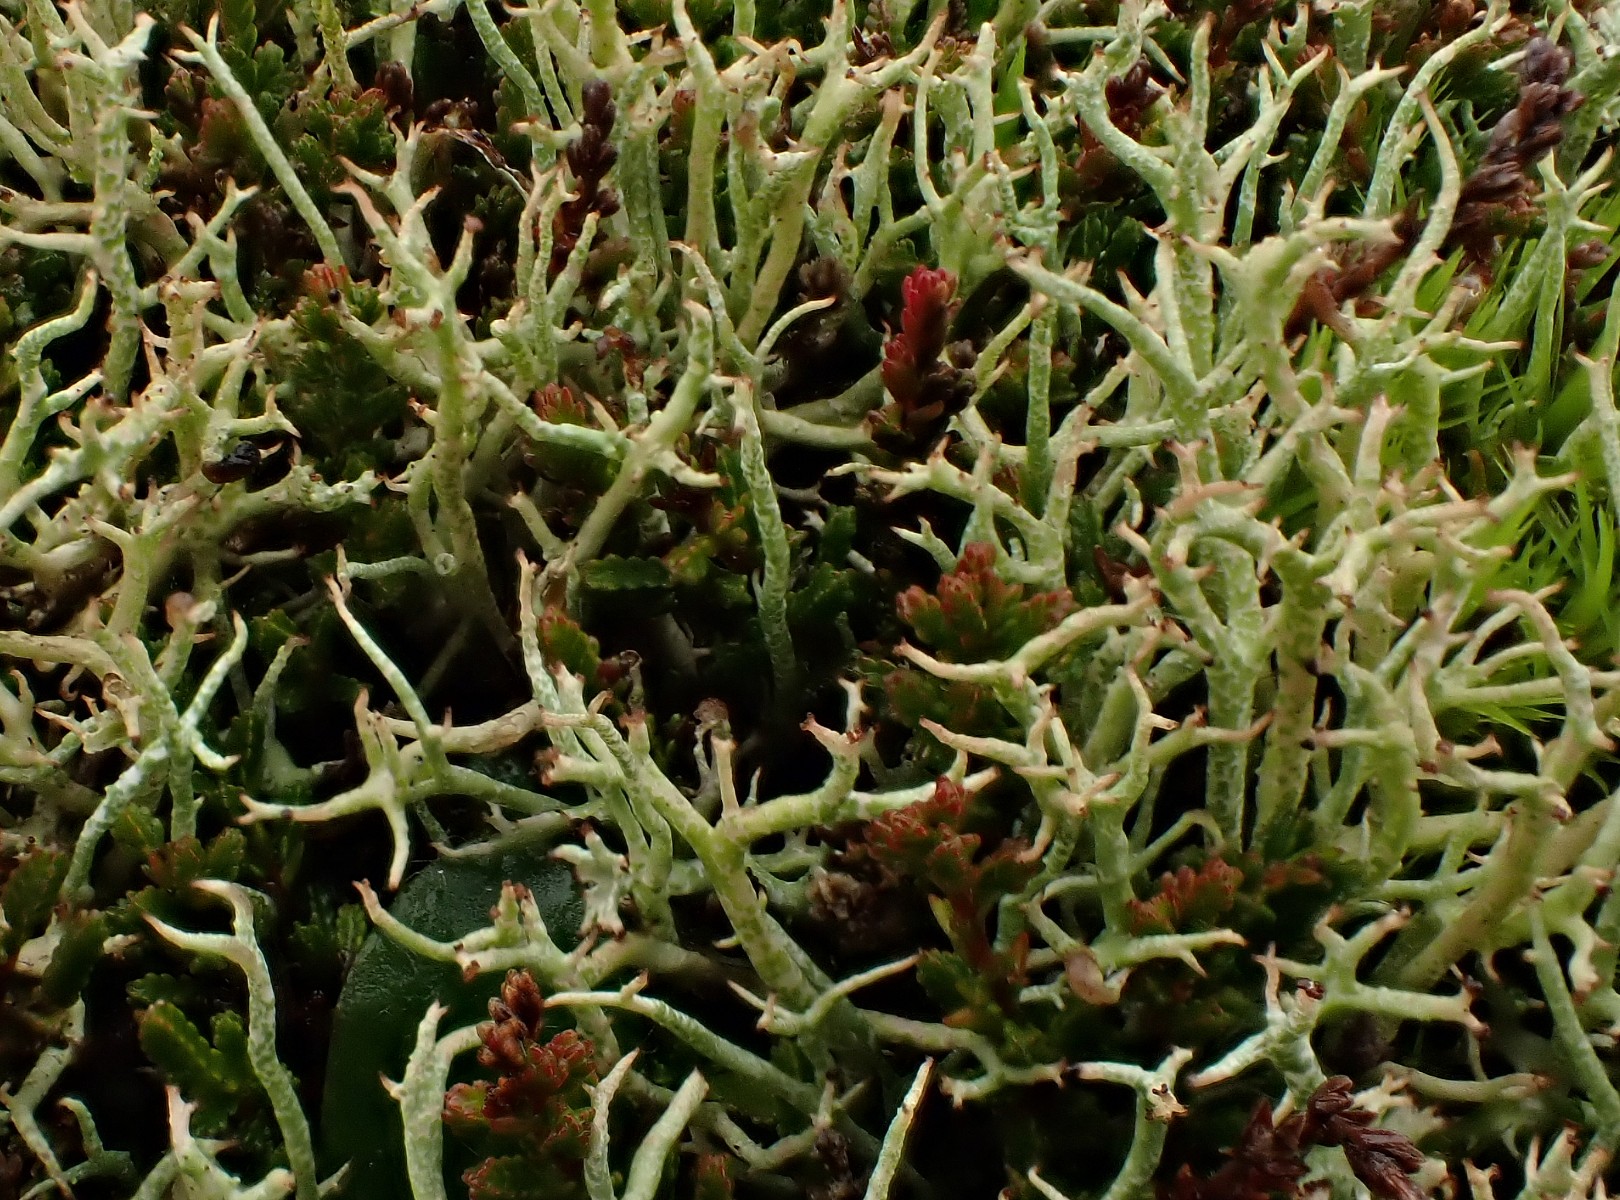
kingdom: Fungi
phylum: Ascomycota
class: Lecanoromycetes
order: Lecanorales
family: Cladoniaceae
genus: Cladonia
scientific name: Cladonia furcata
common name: kløftet bægerlav
